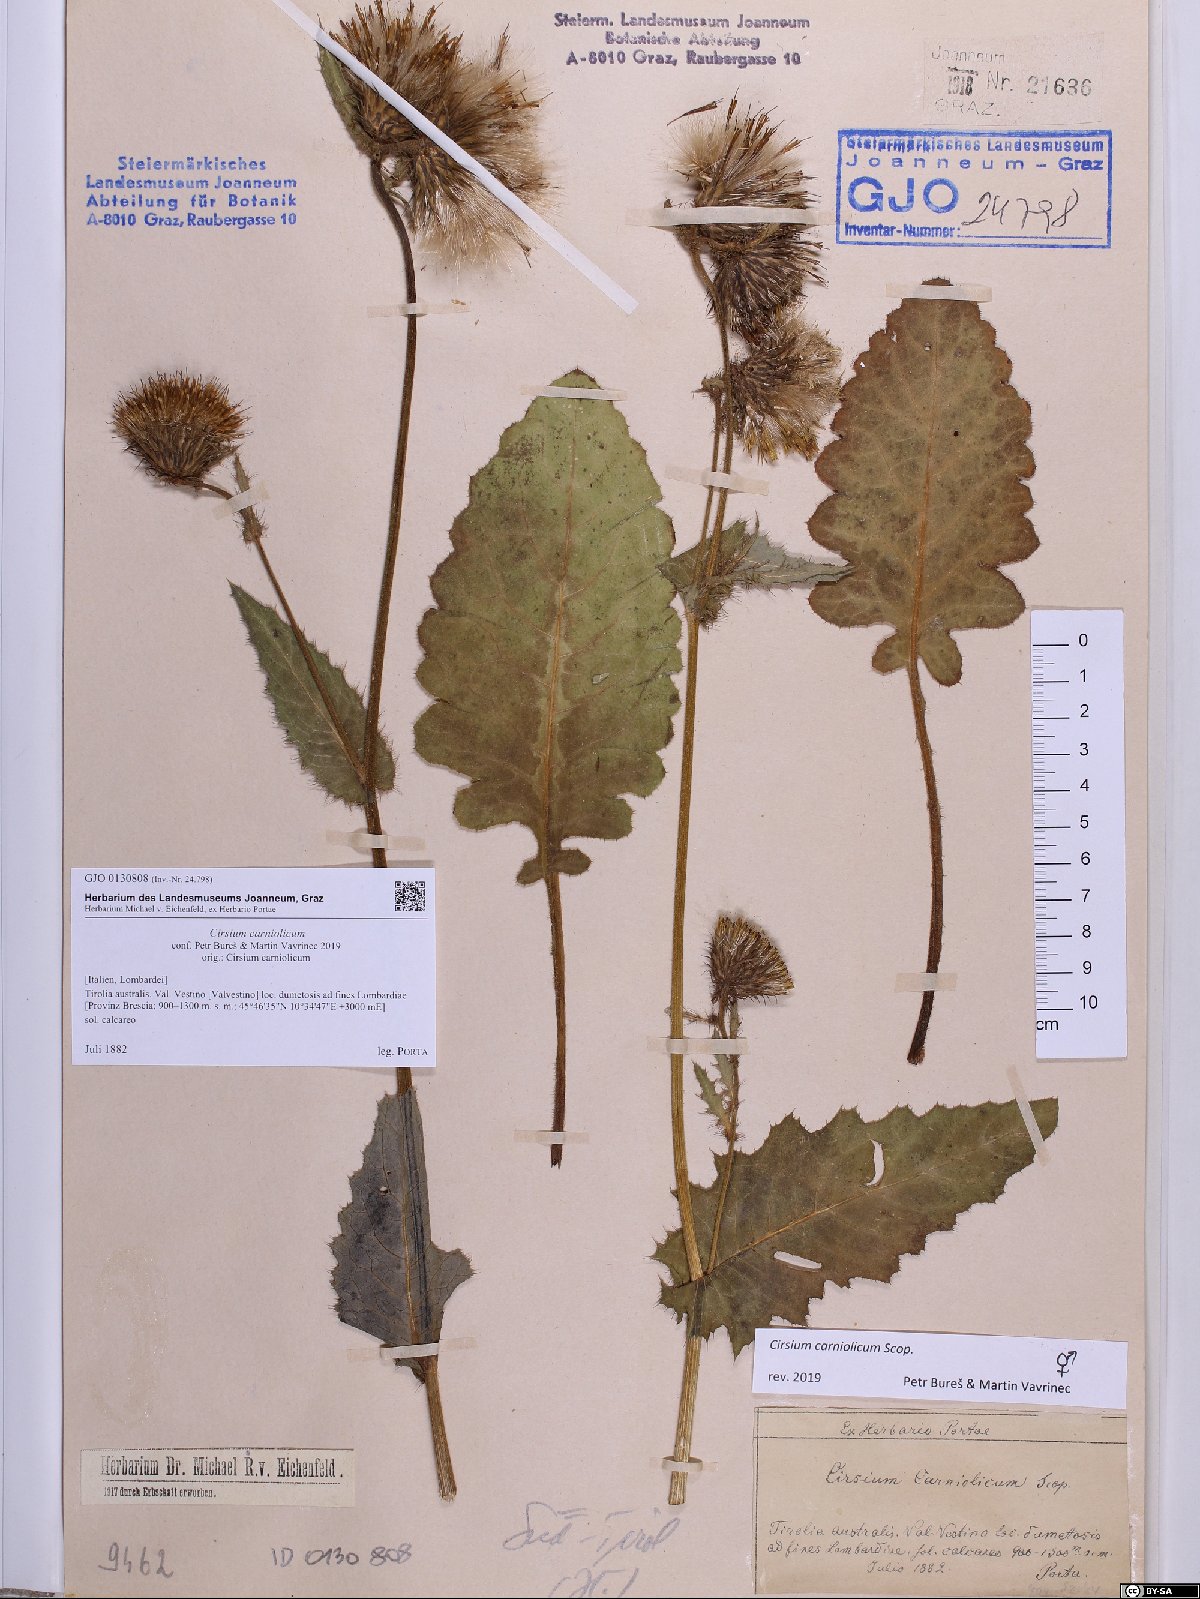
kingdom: Plantae
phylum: Tracheophyta
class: Magnoliopsida
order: Asterales
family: Asteraceae
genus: Cirsium
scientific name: Cirsium carniolicum
